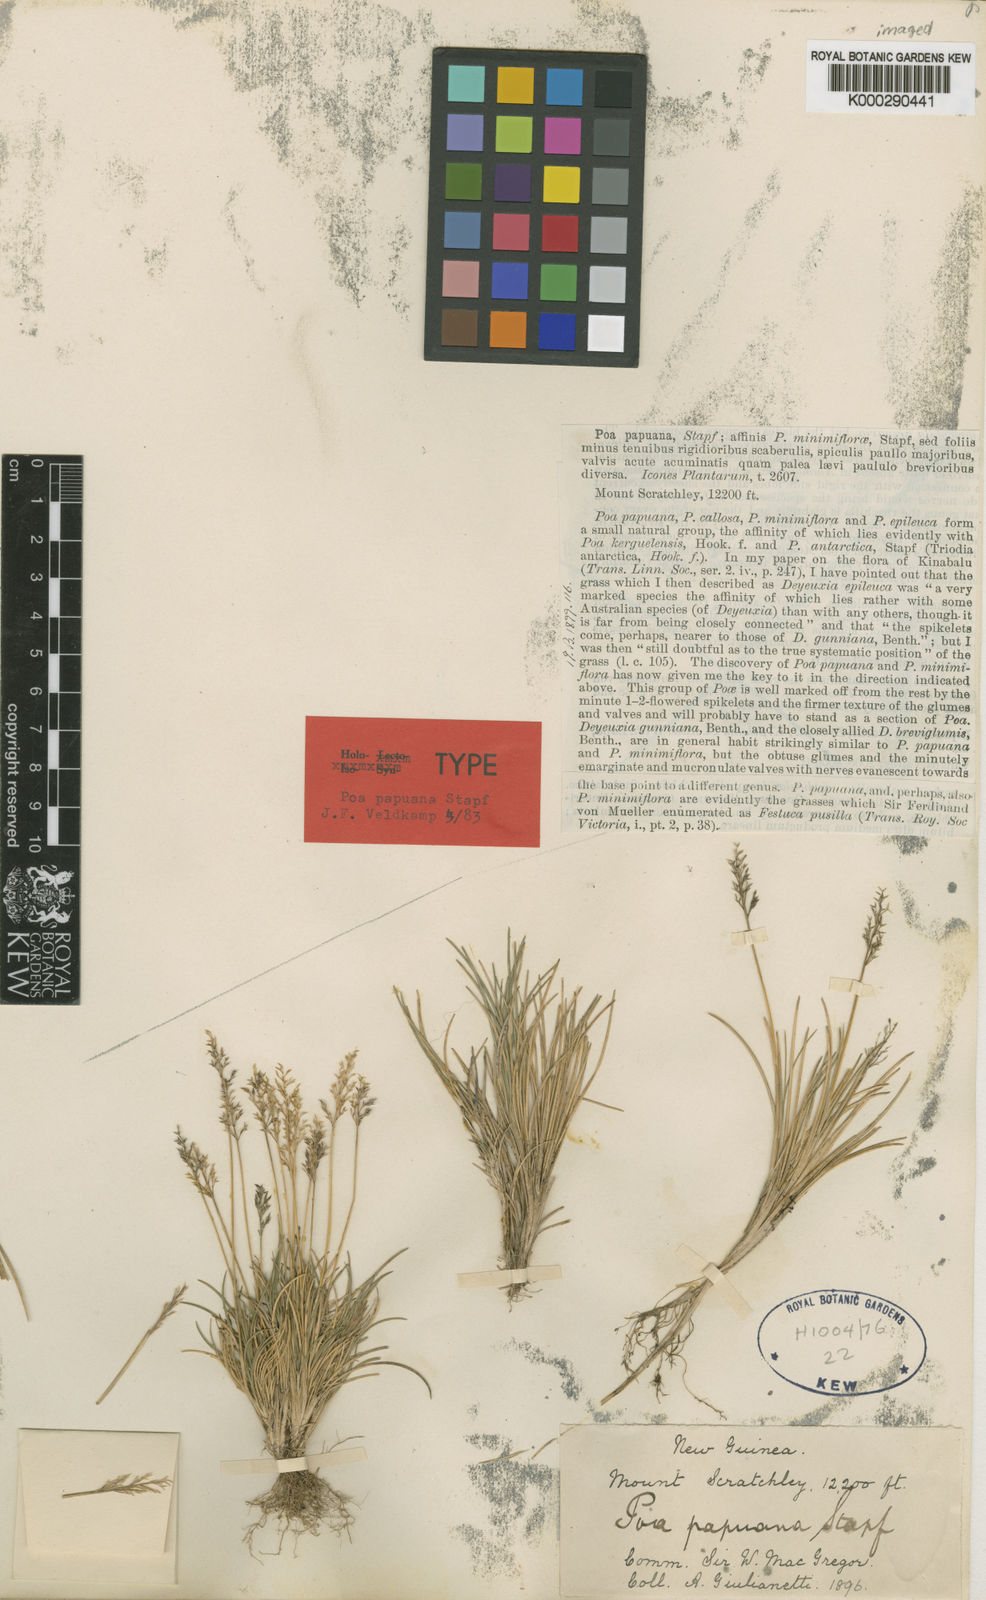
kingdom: Plantae
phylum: Tracheophyta
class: Liliopsida
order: Poales
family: Poaceae
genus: Poa
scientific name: Poa papuana
